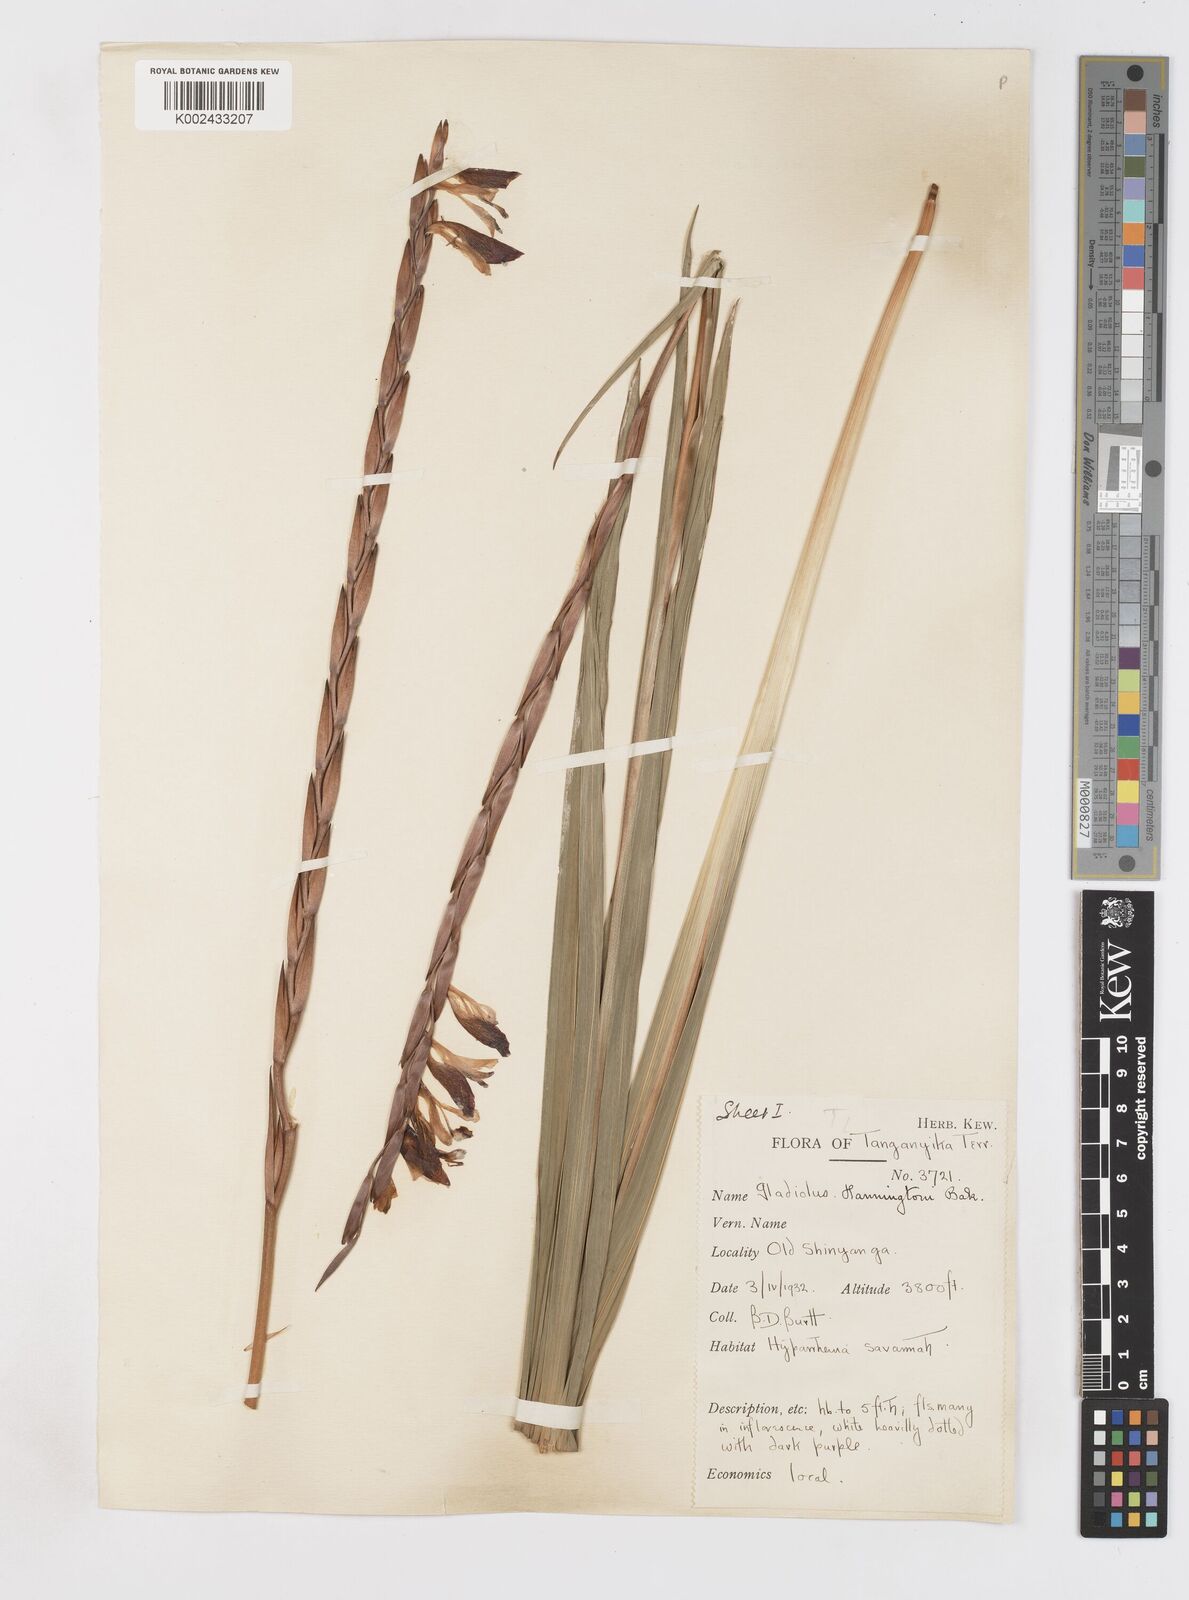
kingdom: Plantae
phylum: Tracheophyta
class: Liliopsida
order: Asparagales
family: Iridaceae
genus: Gladiolus
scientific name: Gladiolus gregarius
